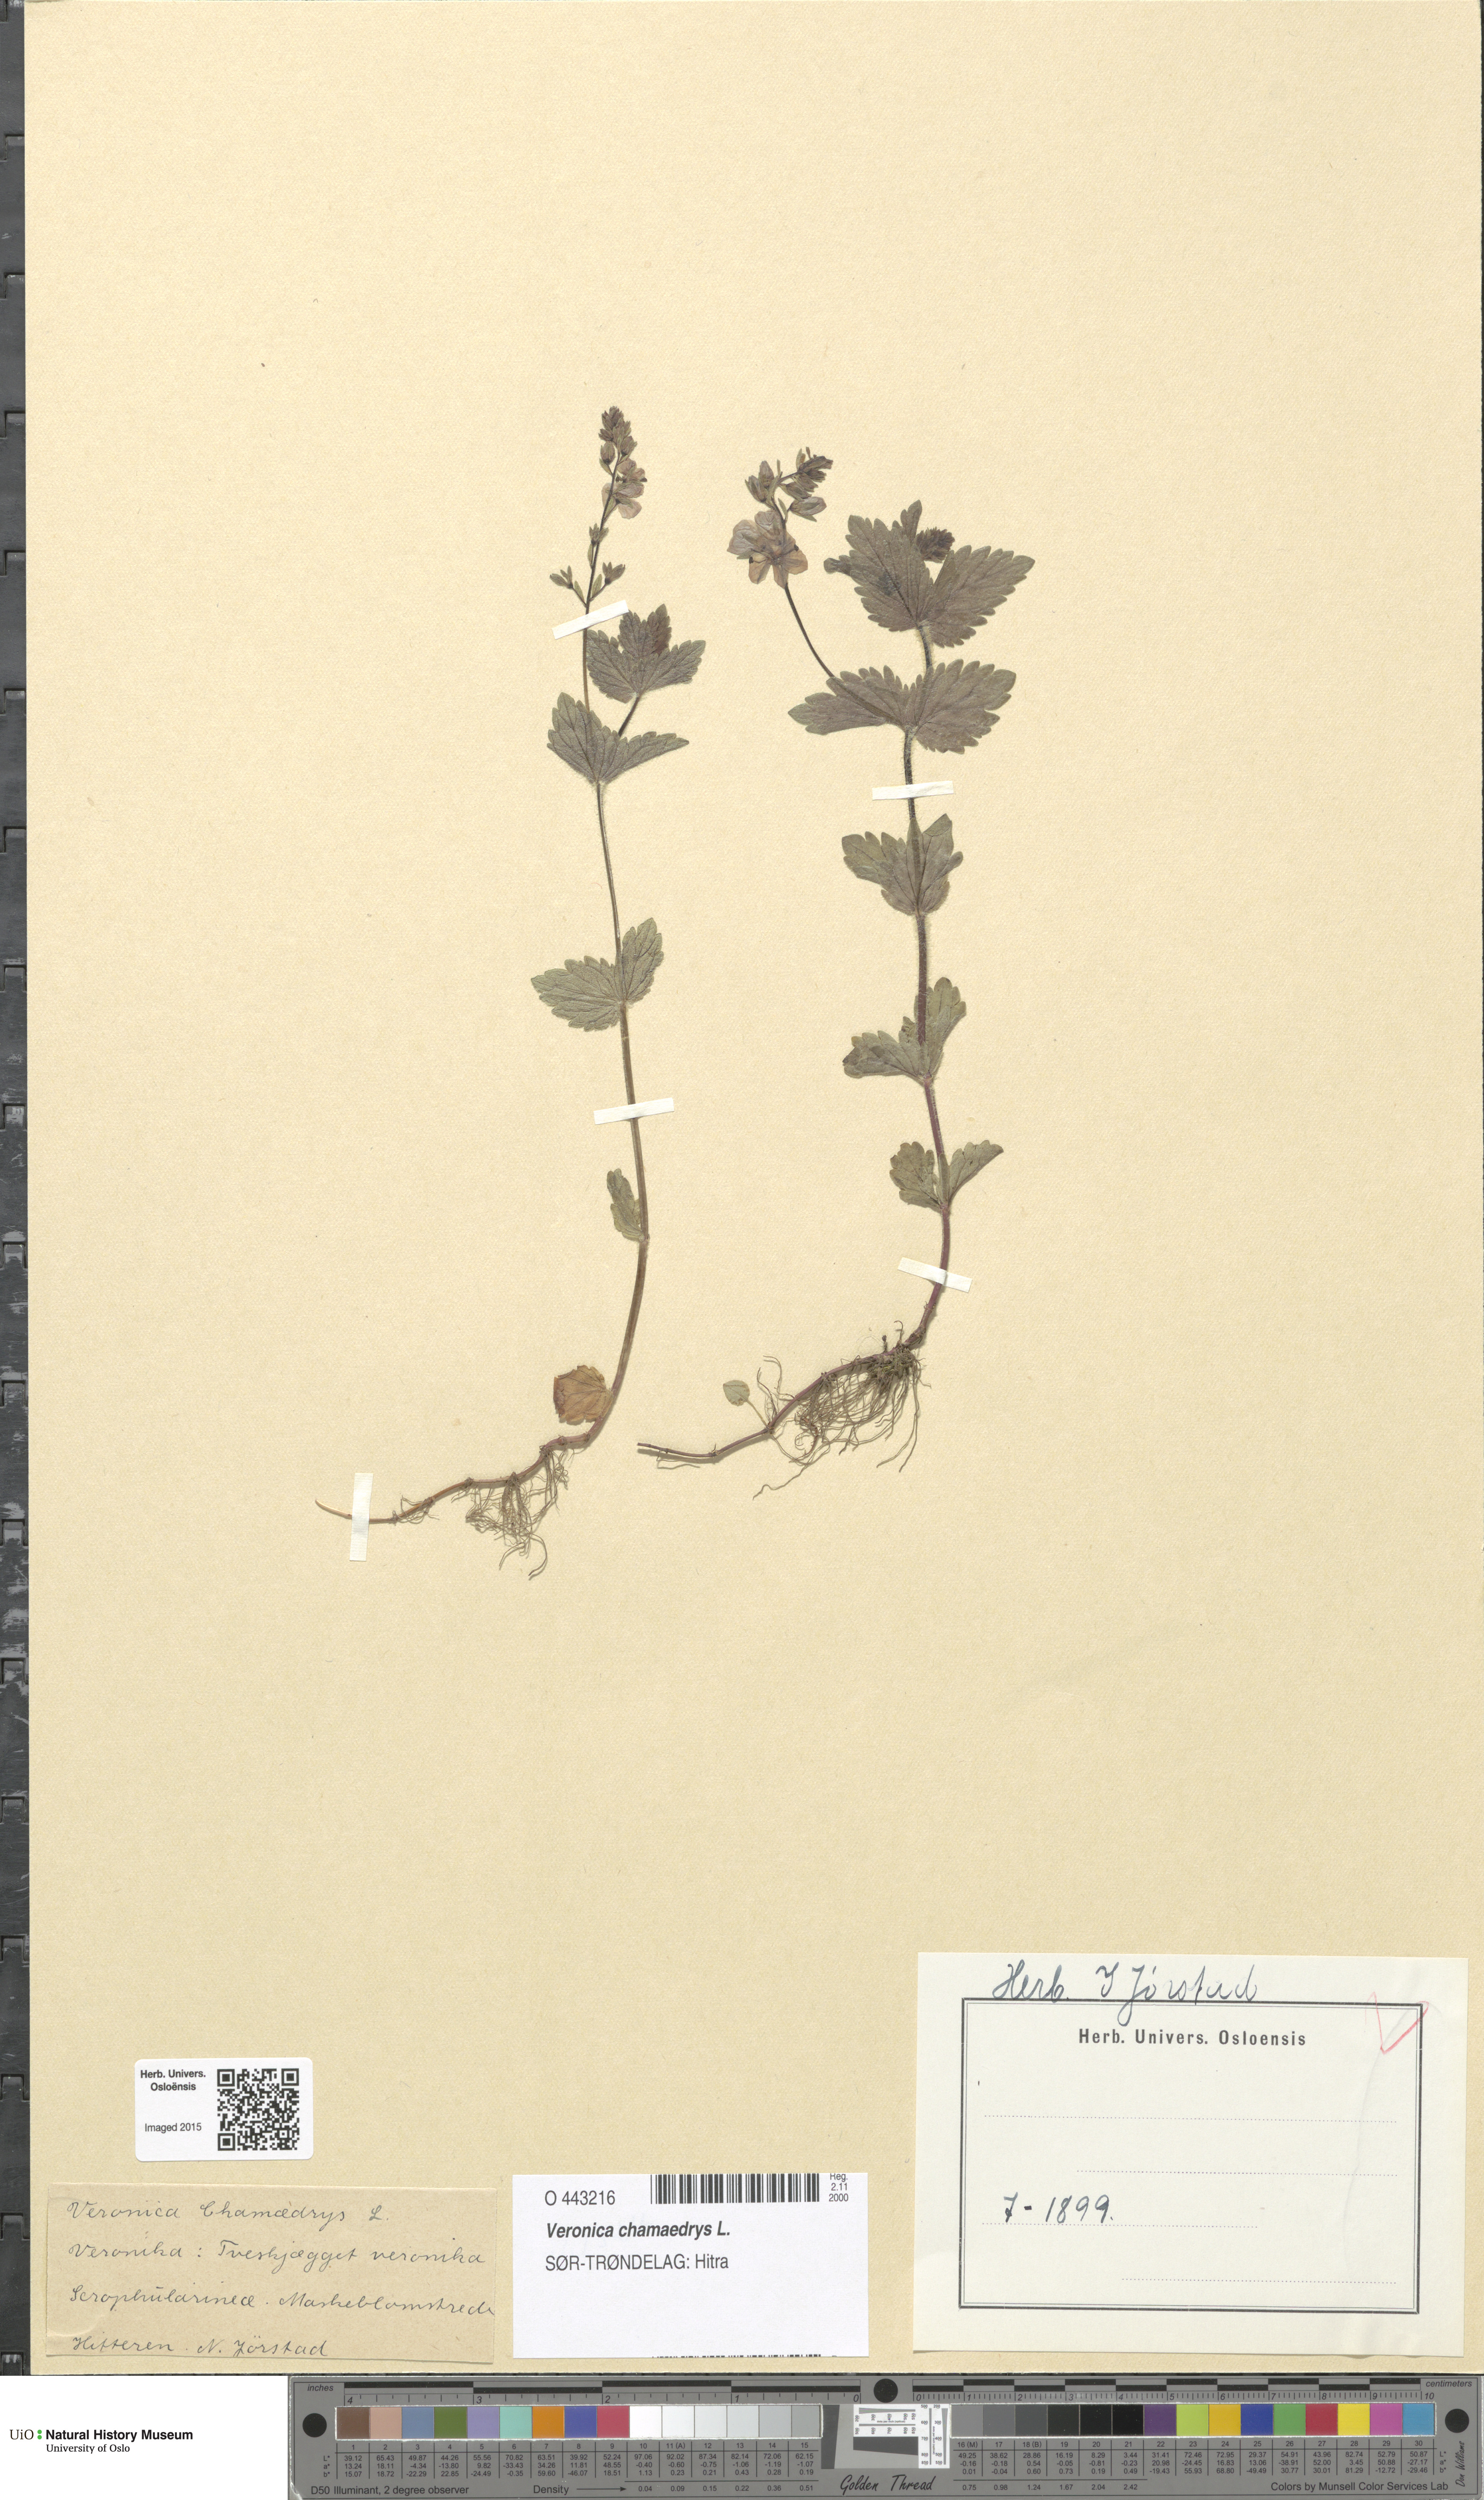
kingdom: Plantae
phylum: Tracheophyta
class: Magnoliopsida
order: Lamiales
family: Plantaginaceae
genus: Veronica
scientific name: Veronica chamaedrys
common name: Germander speedwell
